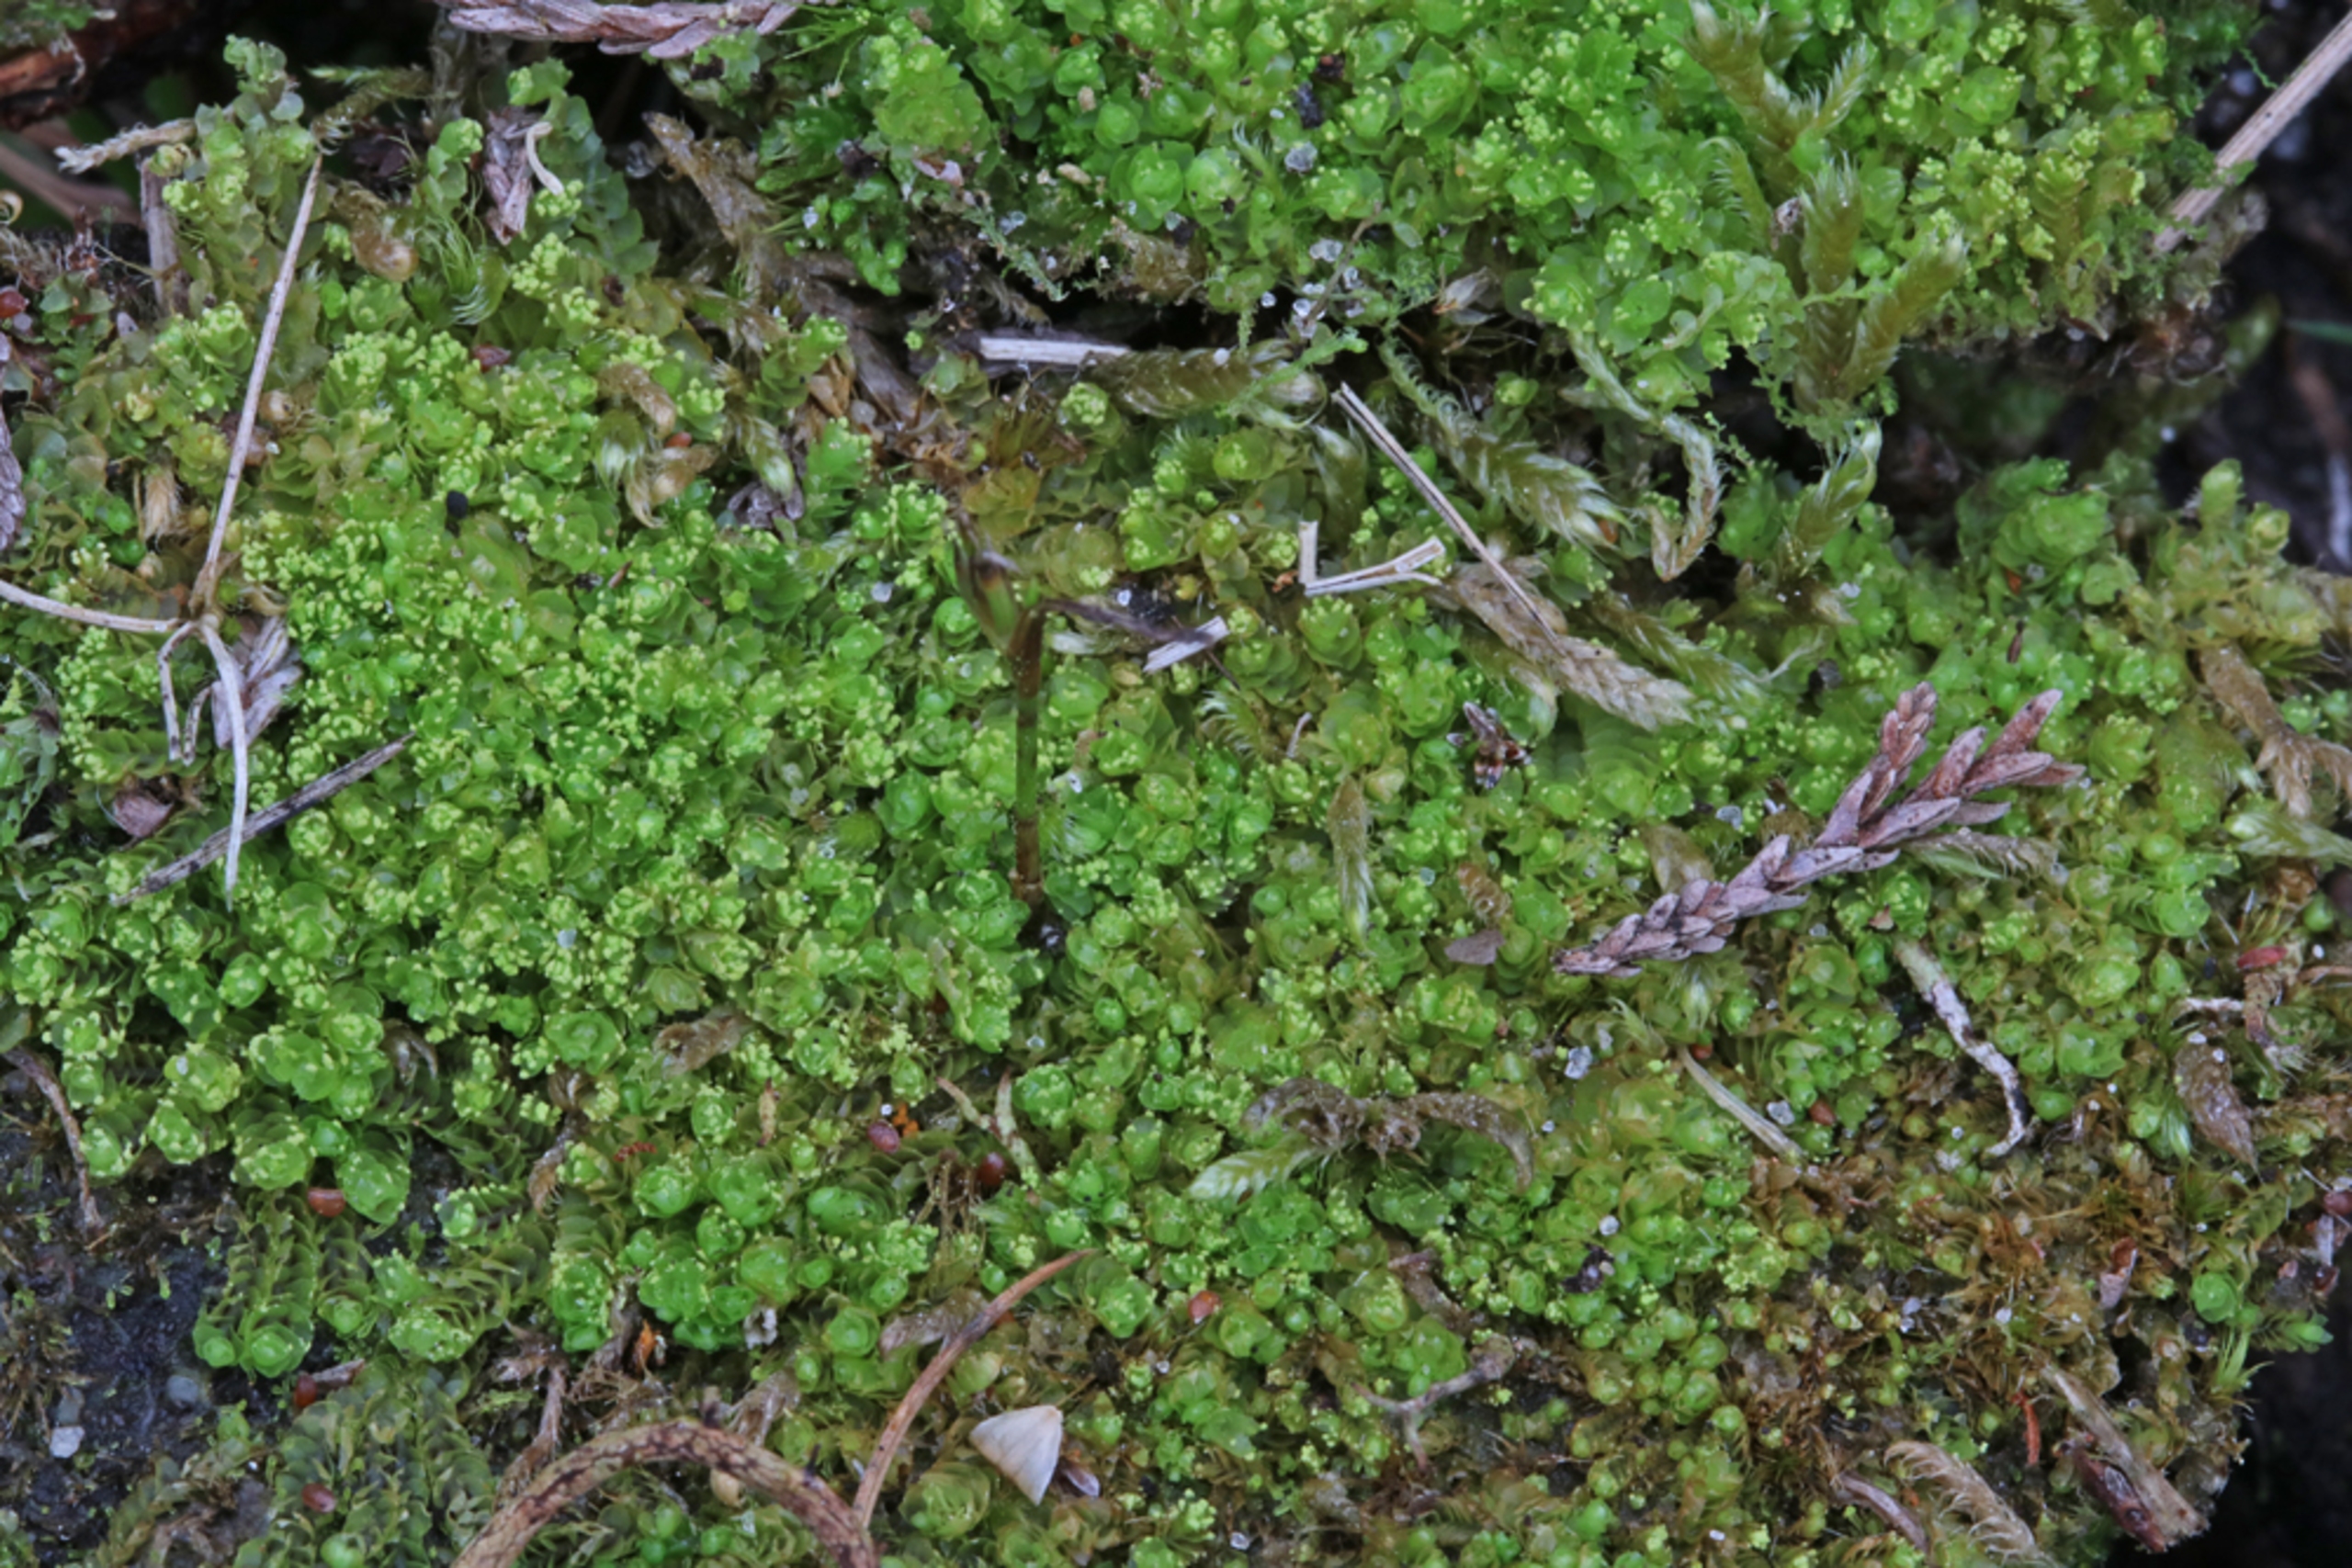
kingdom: Plantae
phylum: Marchantiophyta
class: Jungermanniopsida
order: Jungermanniales
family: Lophoziaceae
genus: Lophozia
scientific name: Lophozia wenzelii
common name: Skeblad-foldbæger
